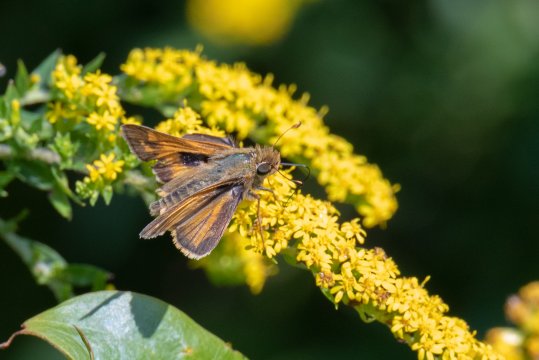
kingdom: Animalia
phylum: Arthropoda
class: Insecta
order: Lepidoptera
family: Hesperiidae
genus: Atalopedes
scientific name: Atalopedes campestris
